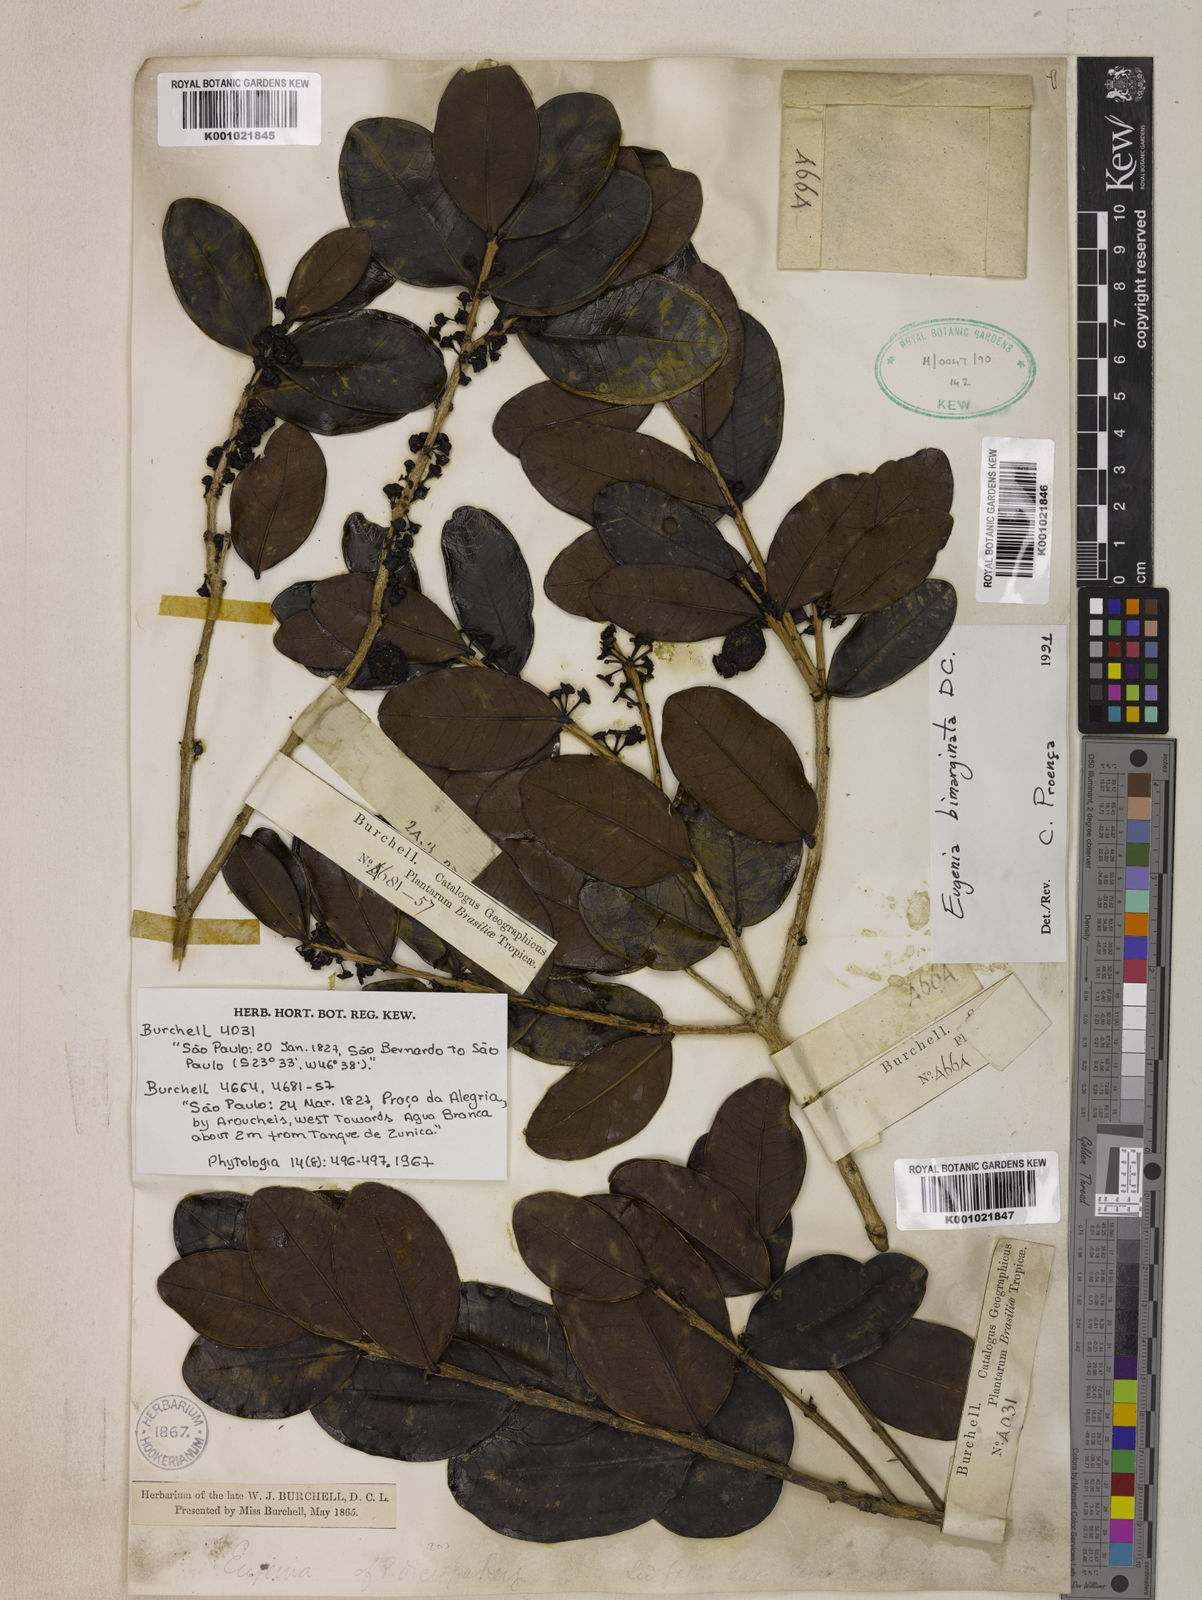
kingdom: Plantae
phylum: Tracheophyta
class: Magnoliopsida
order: Myrtales
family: Myrtaceae
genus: Eugenia
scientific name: Eugenia bimarginata
